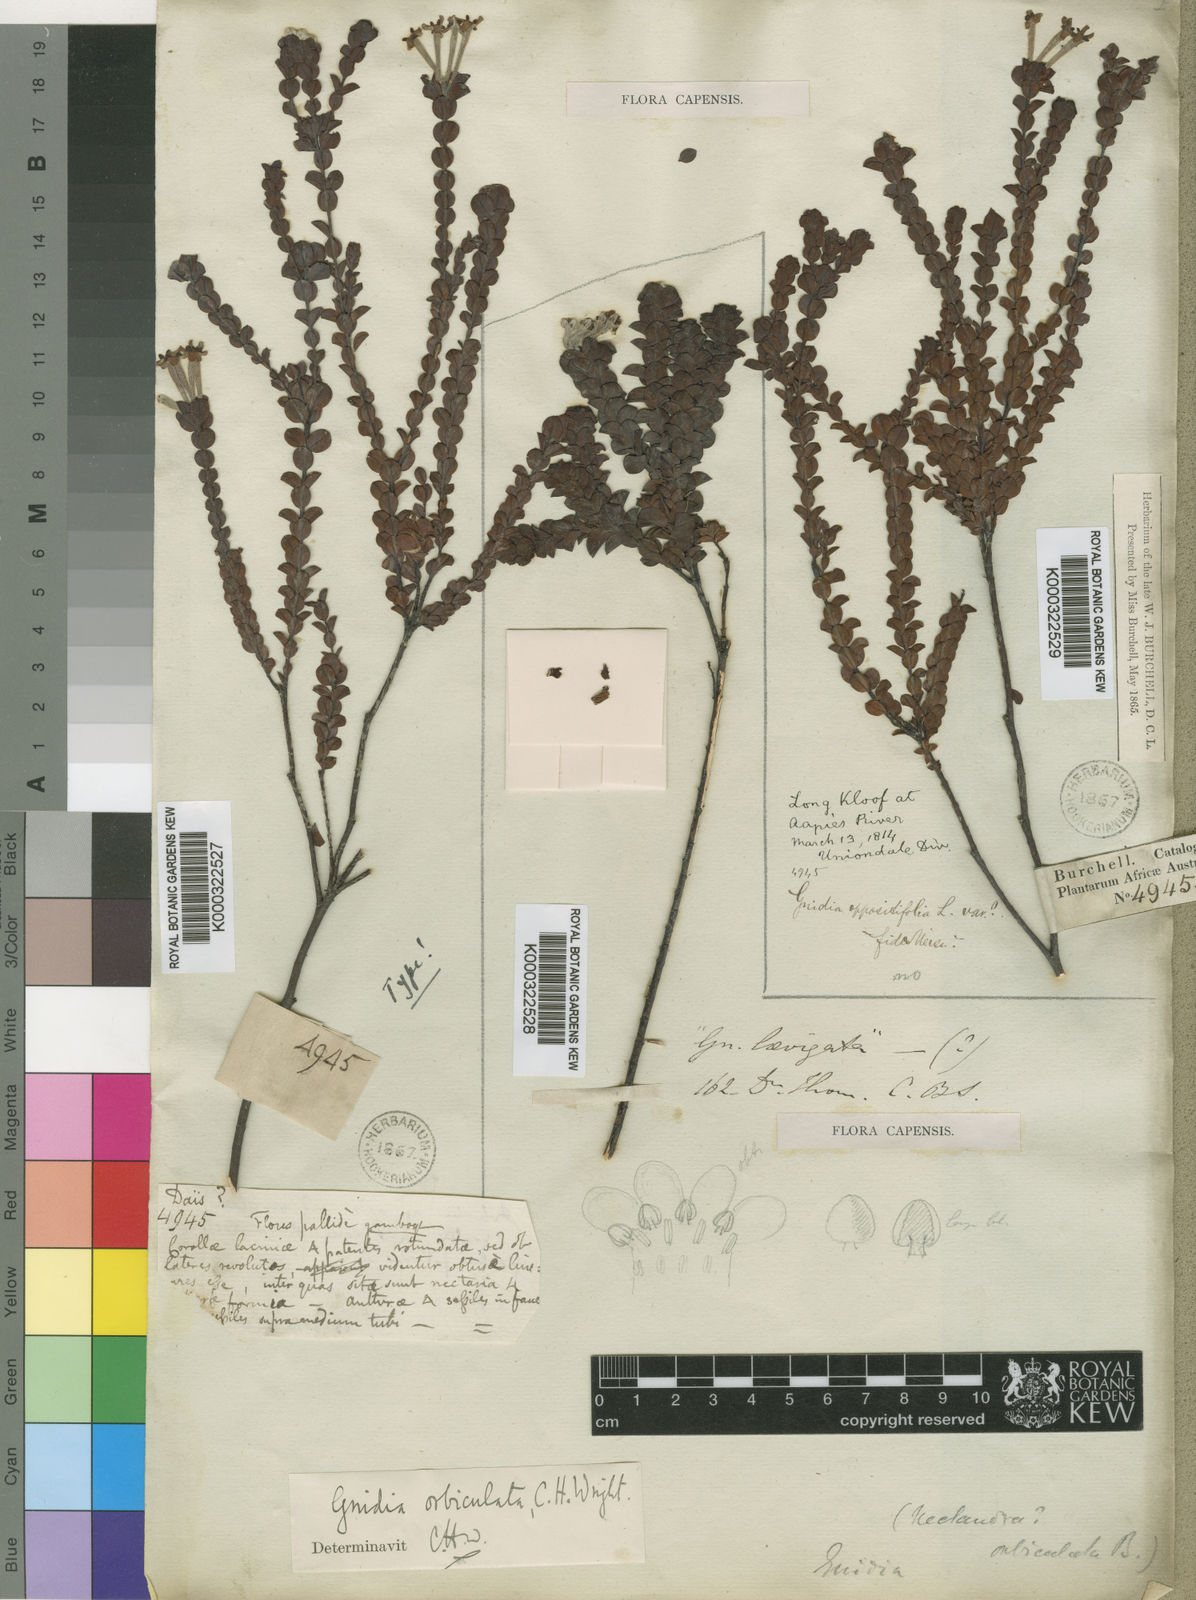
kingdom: Plantae
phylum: Tracheophyta
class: Magnoliopsida
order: Malvales
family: Thymelaeaceae
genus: Gnidia
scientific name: Gnidia orbiculata
